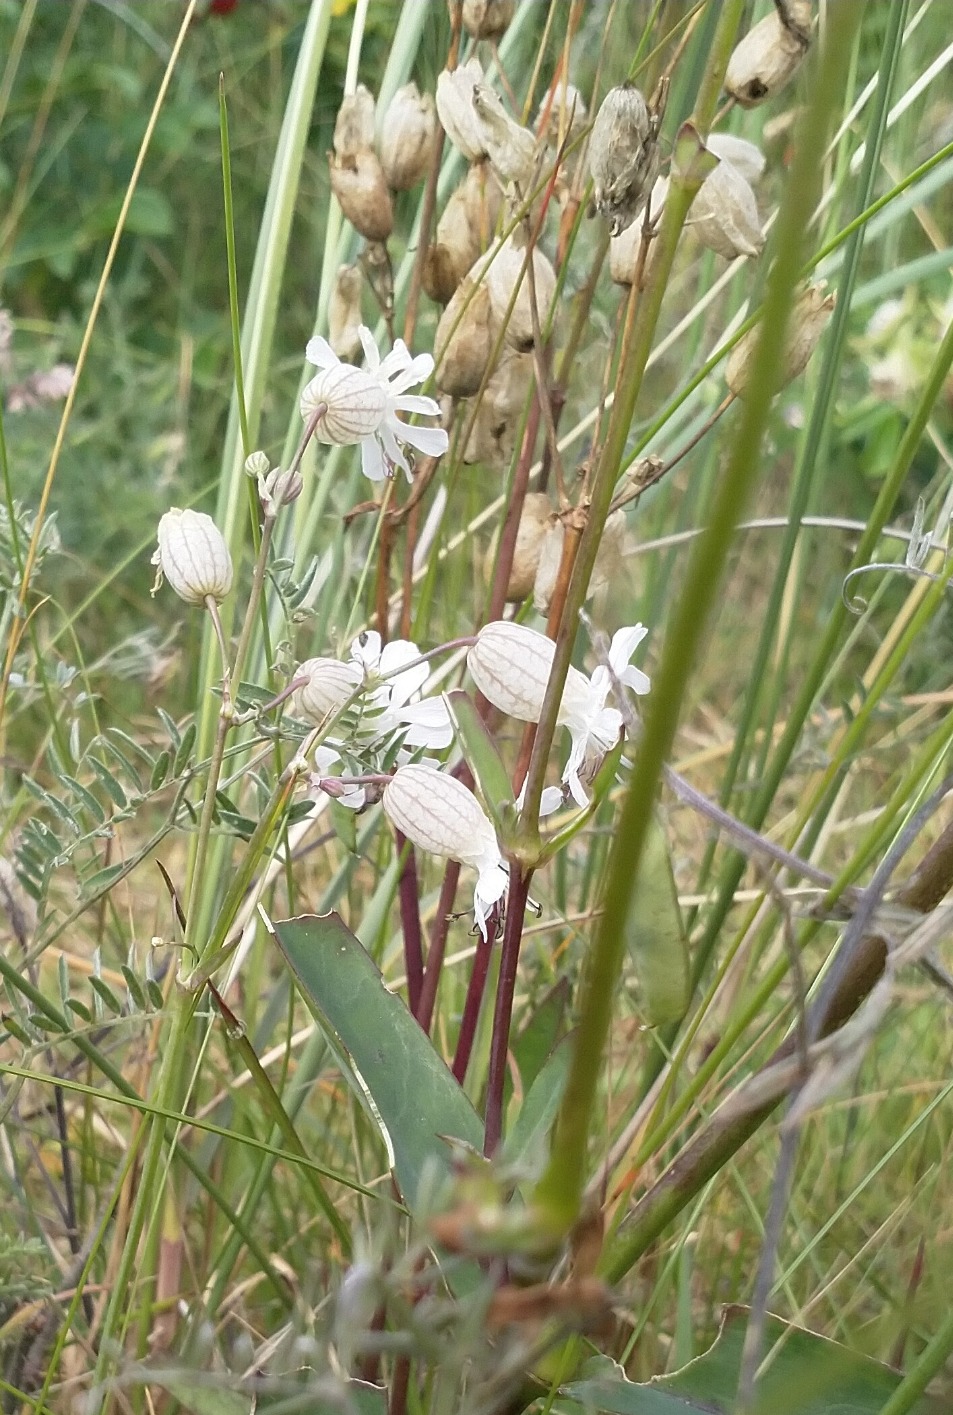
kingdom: Plantae
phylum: Tracheophyta
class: Magnoliopsida
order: Caryophyllales
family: Caryophyllaceae
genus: Silene
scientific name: Silene vulgaris
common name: Blæresmælde
